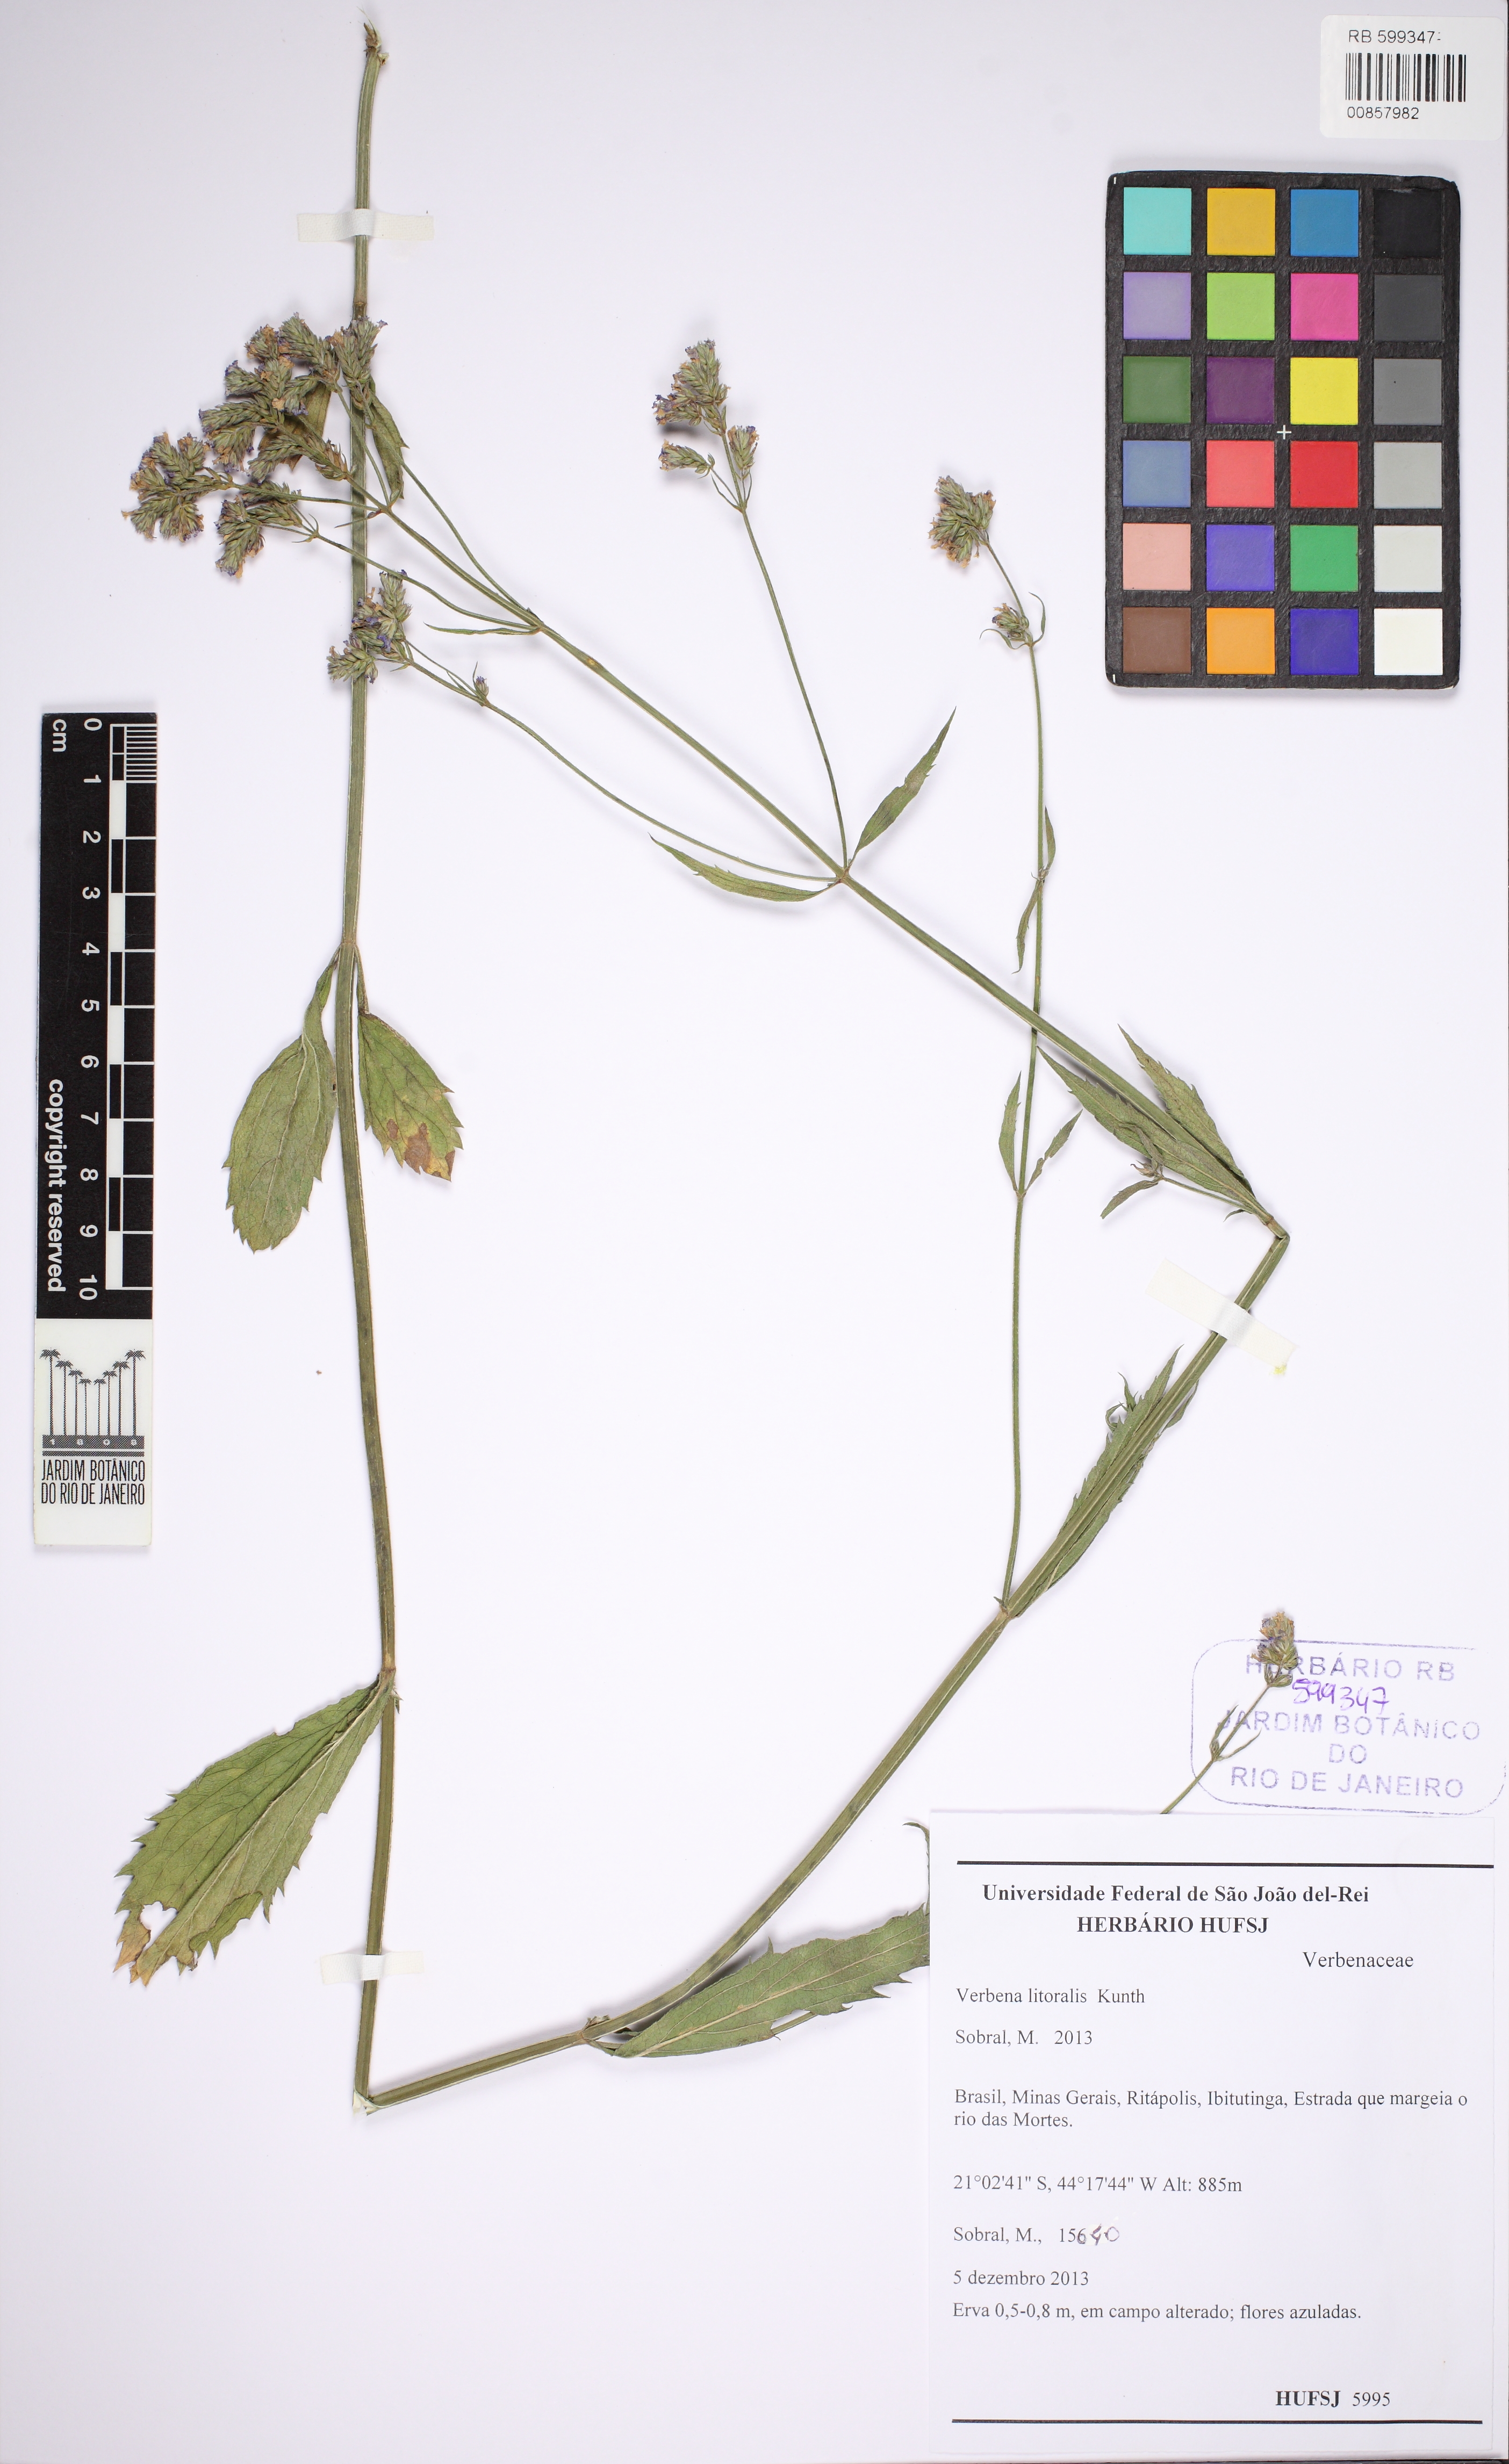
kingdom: Plantae
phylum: Tracheophyta
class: Magnoliopsida
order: Lamiales
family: Verbenaceae
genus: Verbena
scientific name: Verbena litoralis
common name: Seashore vervain
